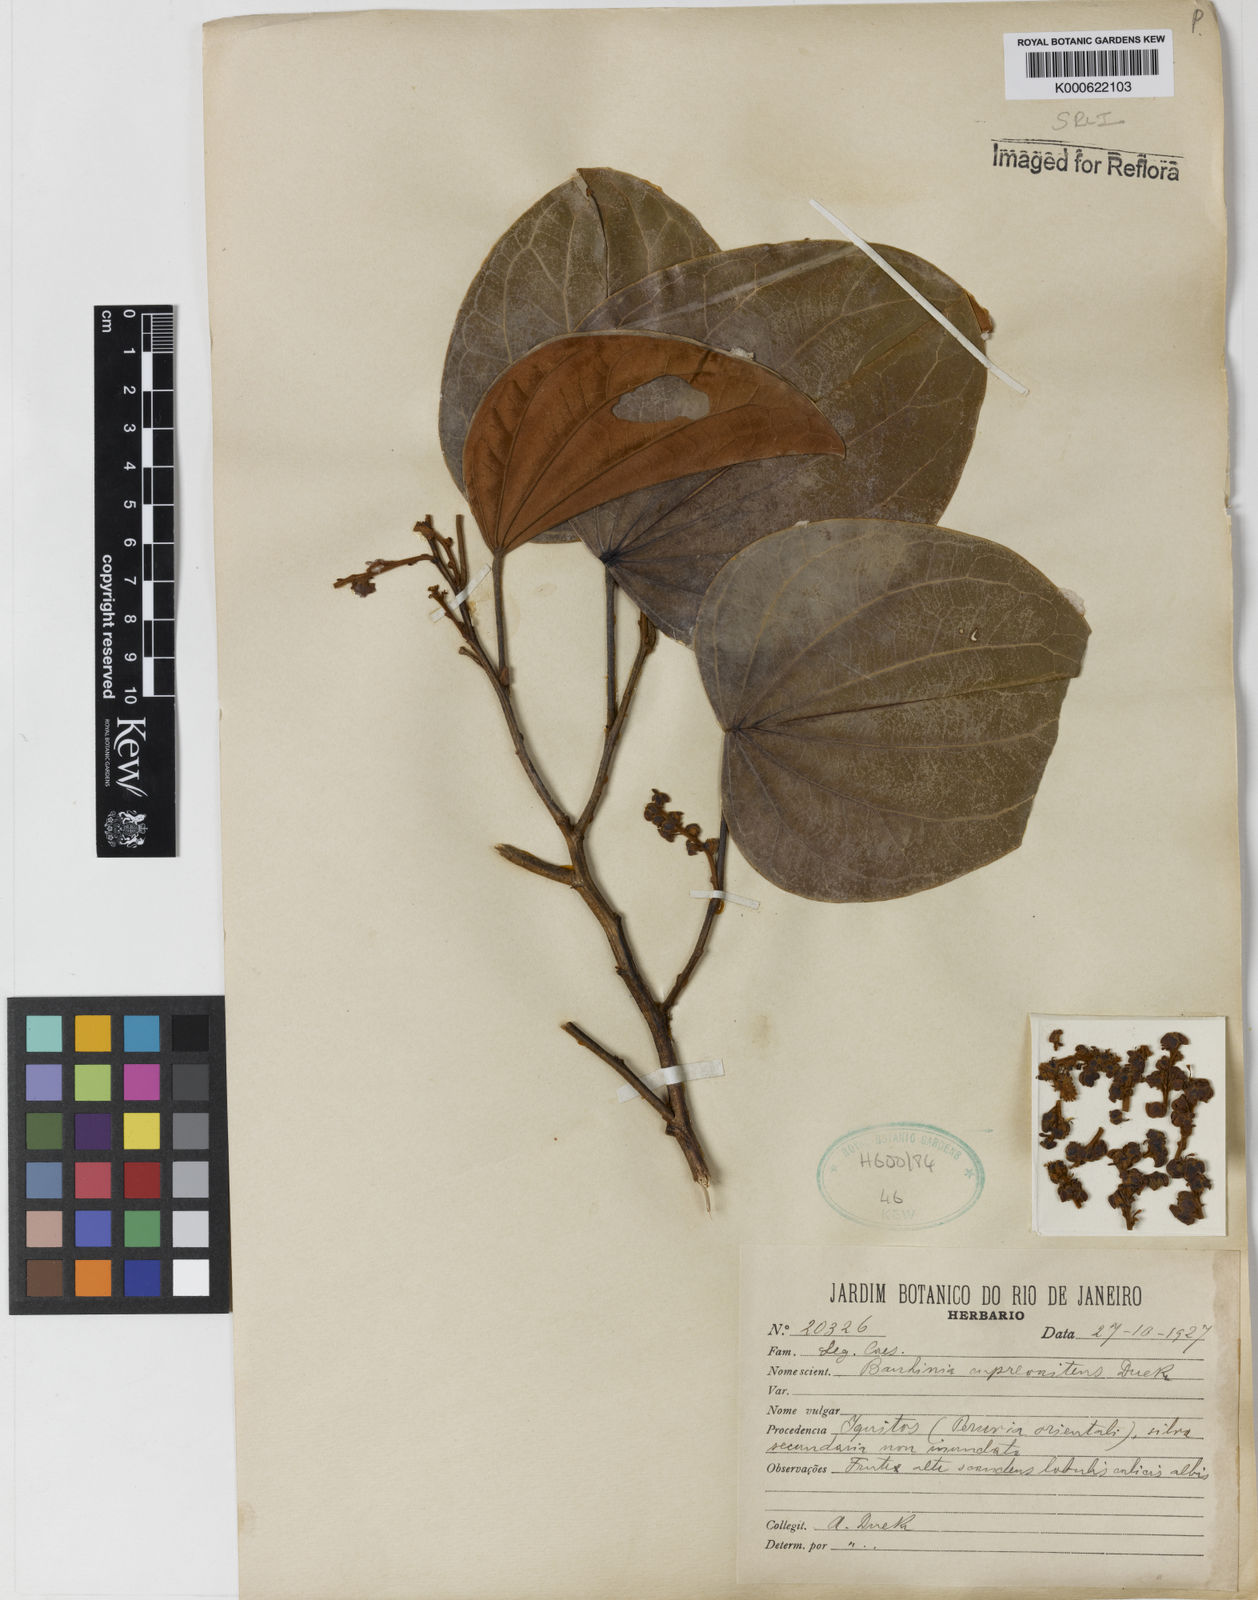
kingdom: Plantae
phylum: Tracheophyta
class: Magnoliopsida
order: Fabales
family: Fabaceae
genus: Schnella
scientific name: Schnella cupreonitens
